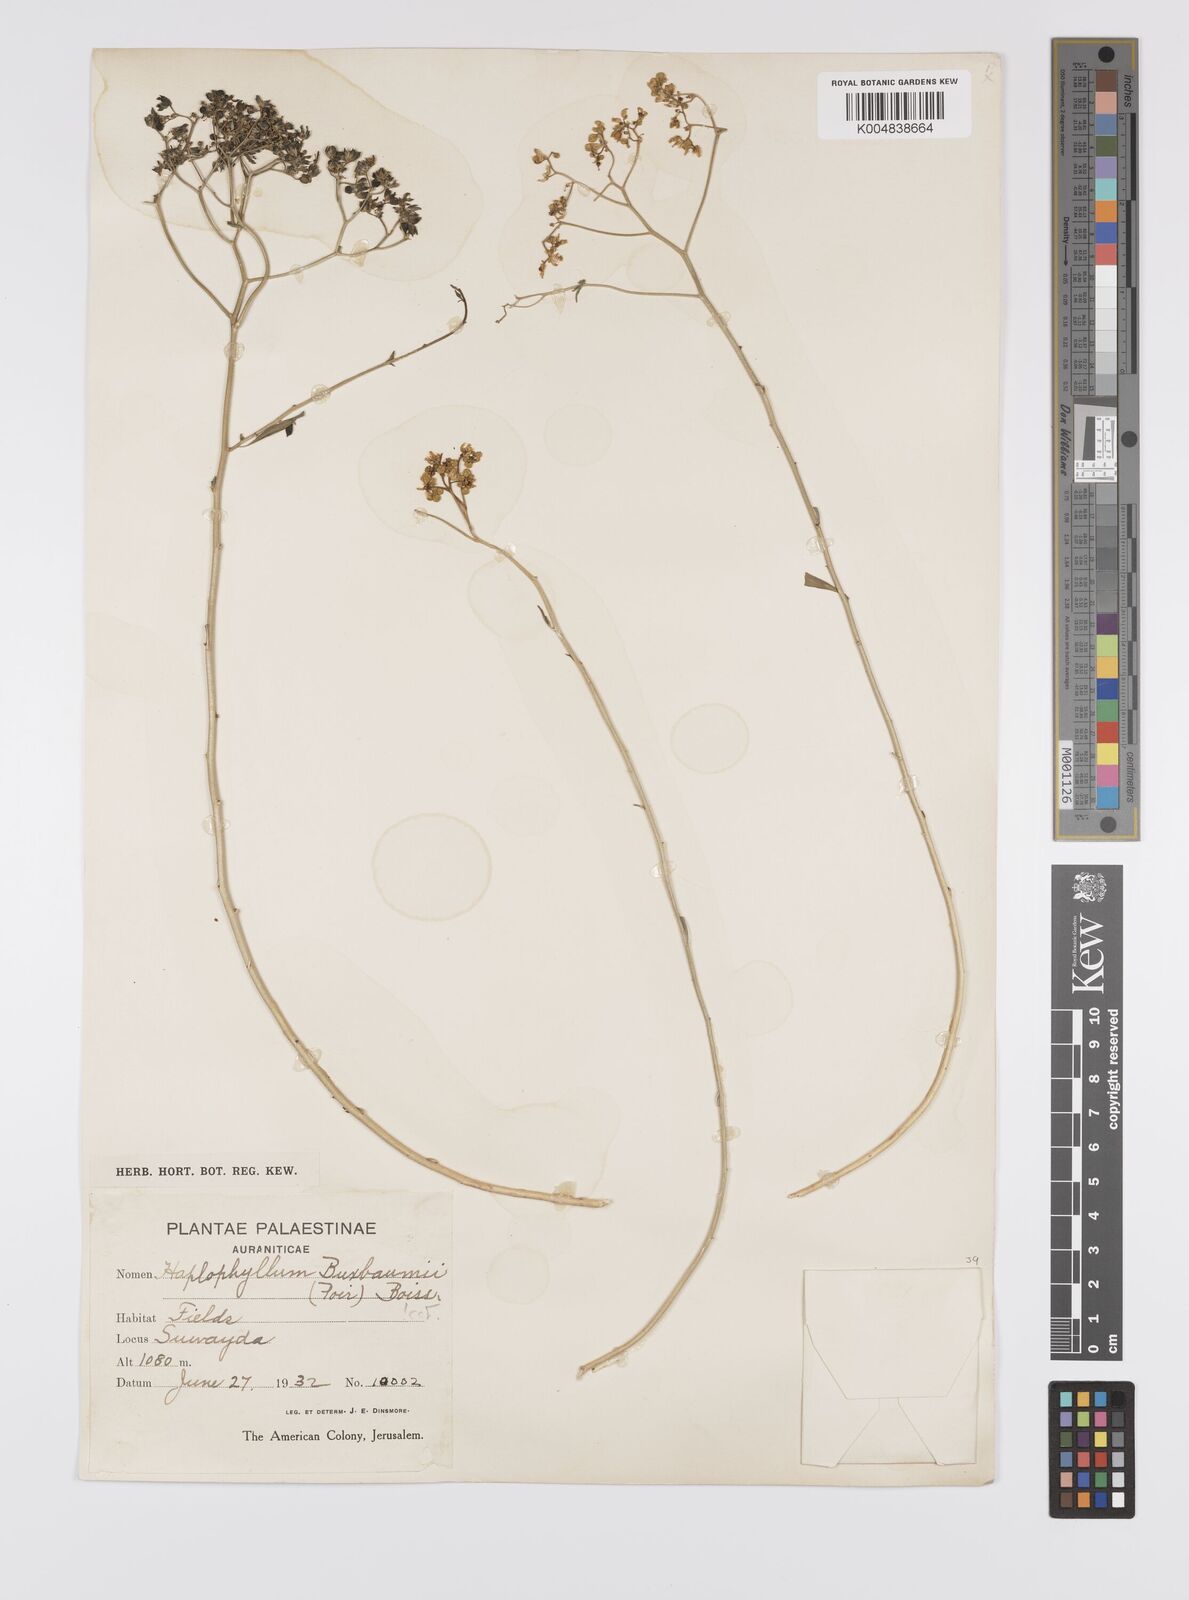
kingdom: Plantae
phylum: Tracheophyta
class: Magnoliopsida
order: Sapindales
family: Rutaceae
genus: Haplophyllum
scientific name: Haplophyllum
